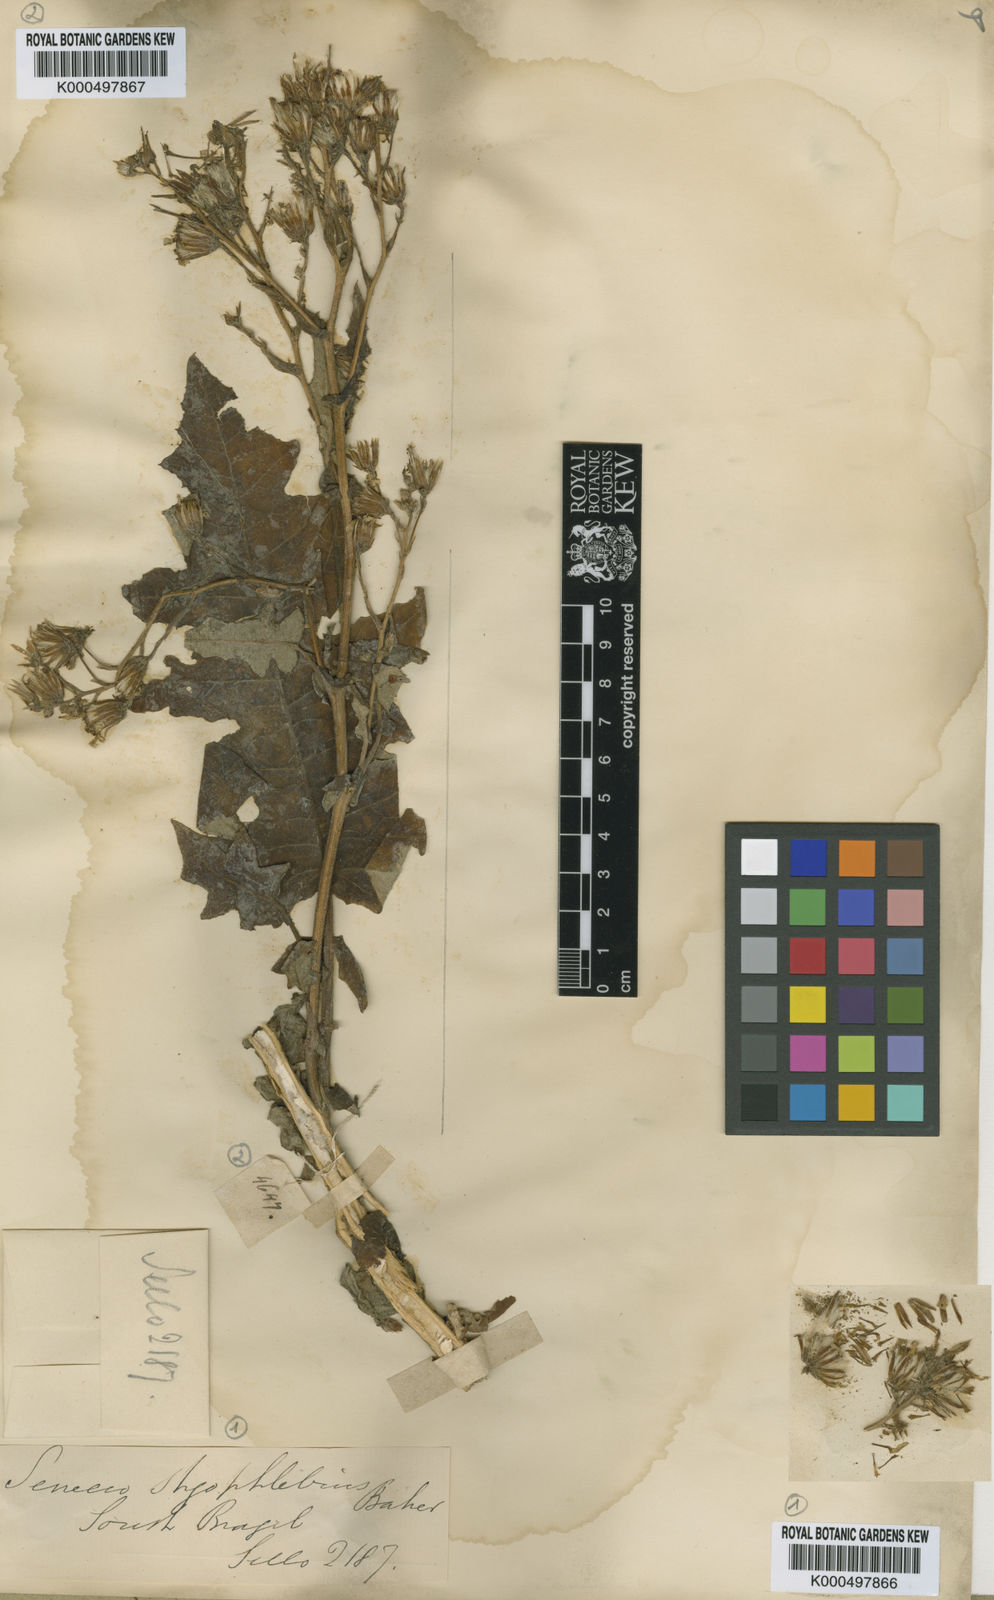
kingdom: Plantae
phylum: Tracheophyta
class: Magnoliopsida
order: Asterales
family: Asteraceae
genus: Senecio
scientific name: Senecio stigophlebius
